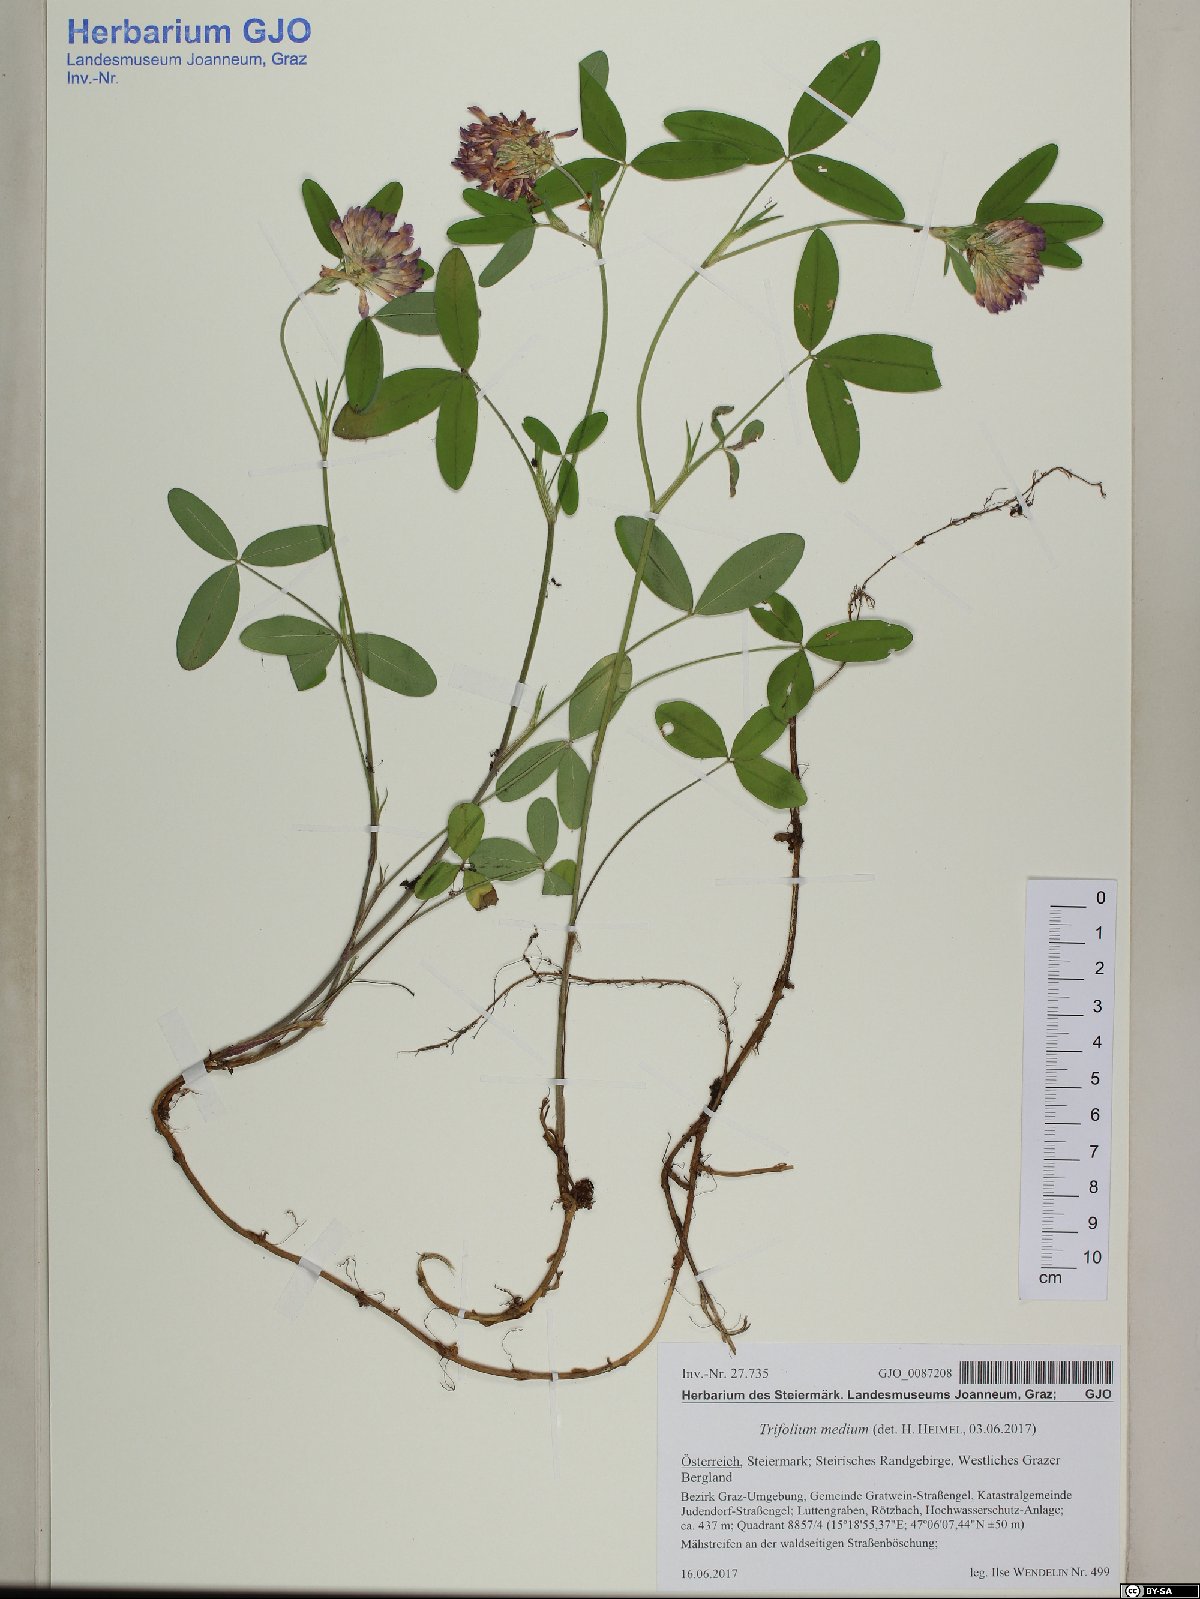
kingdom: Plantae
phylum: Tracheophyta
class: Magnoliopsida
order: Fabales
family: Fabaceae
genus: Trifolium
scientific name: Trifolium medium
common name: Zigzag clover
